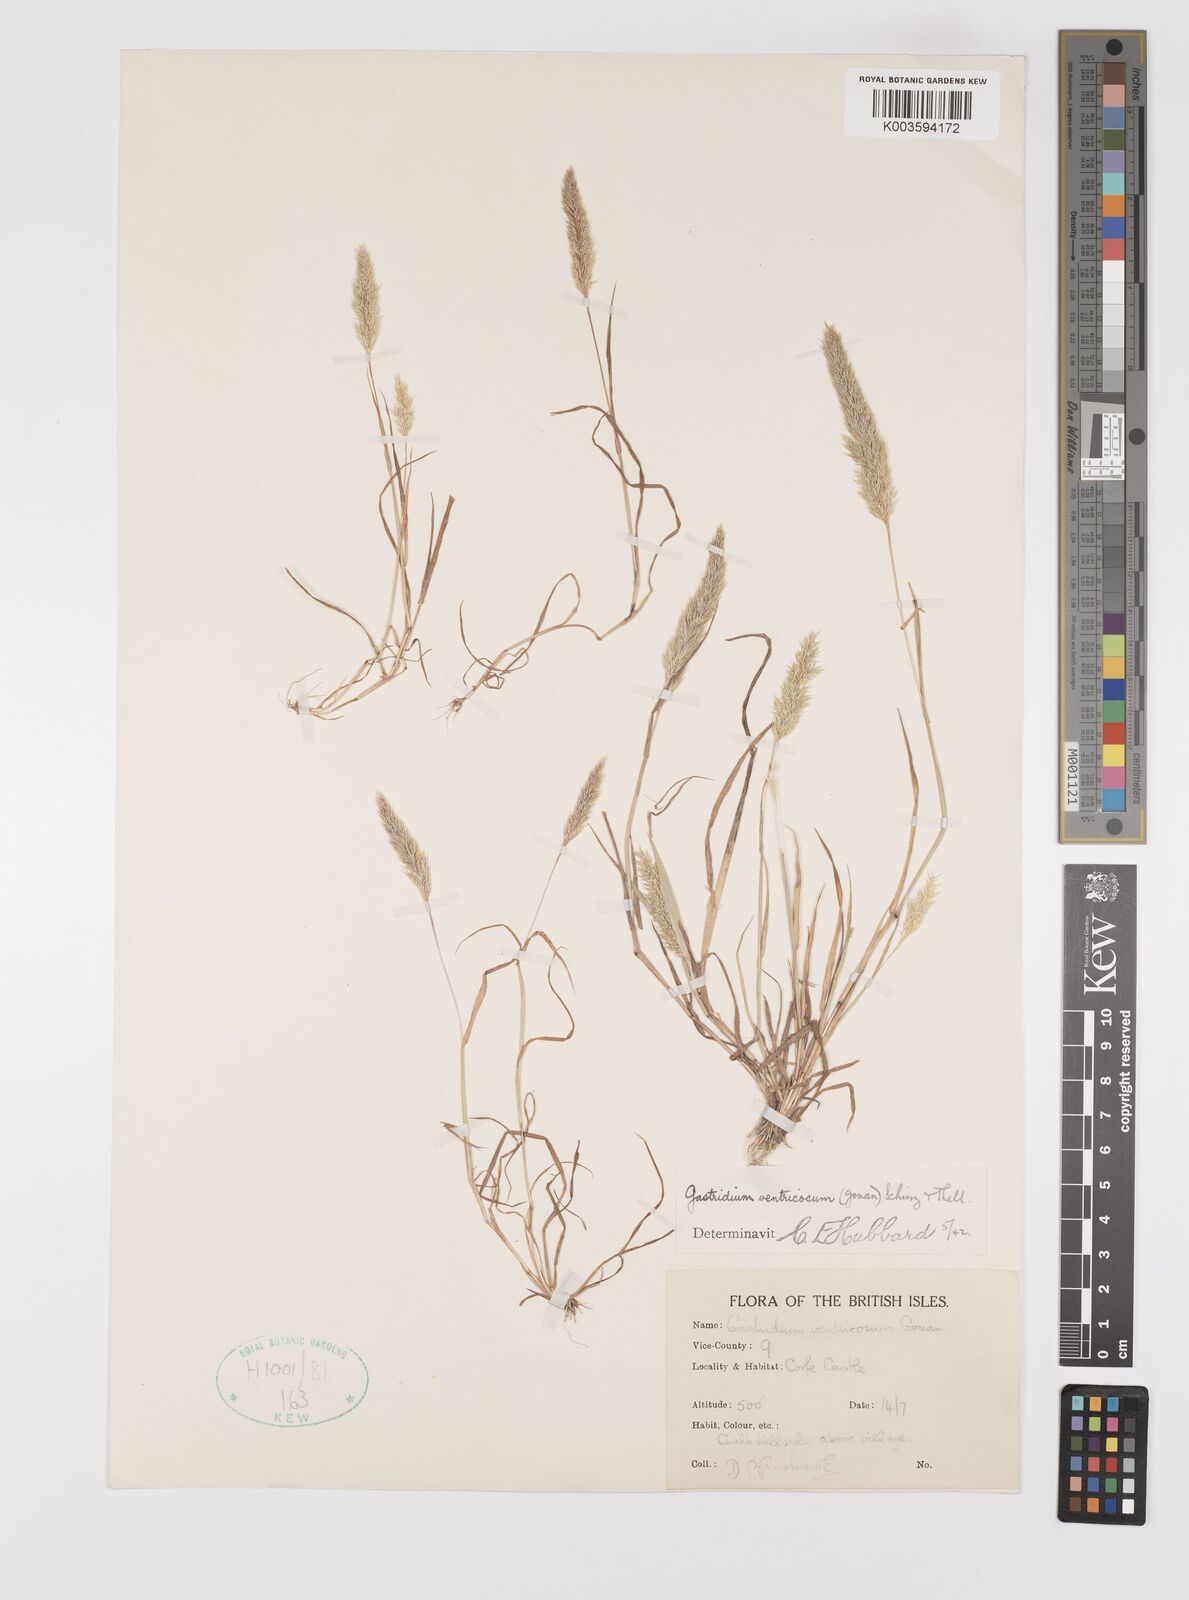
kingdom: Plantae
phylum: Tracheophyta
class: Liliopsida
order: Poales
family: Poaceae
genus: Gastridium
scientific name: Gastridium ventricosum
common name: Nit-grass
